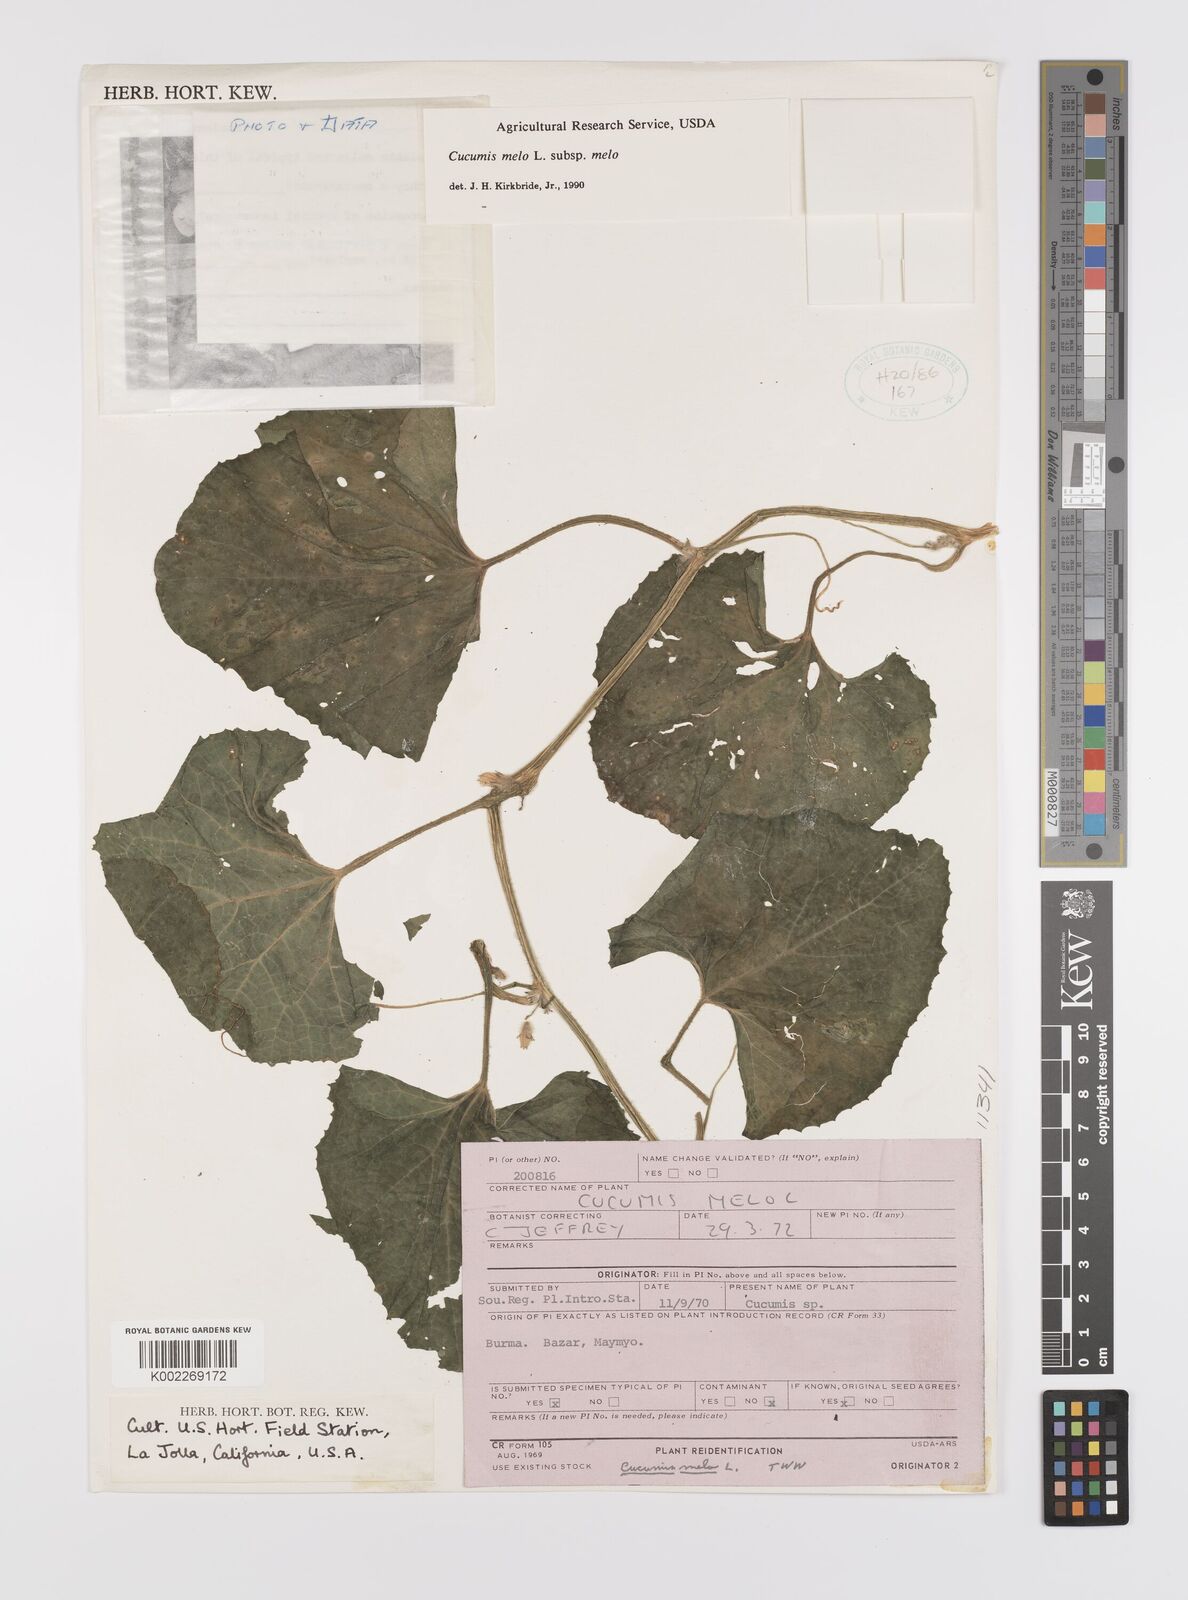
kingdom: Plantae
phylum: Tracheophyta
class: Magnoliopsida
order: Cucurbitales
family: Cucurbitaceae
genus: Cucumis
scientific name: Cucumis melo
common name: Melon
